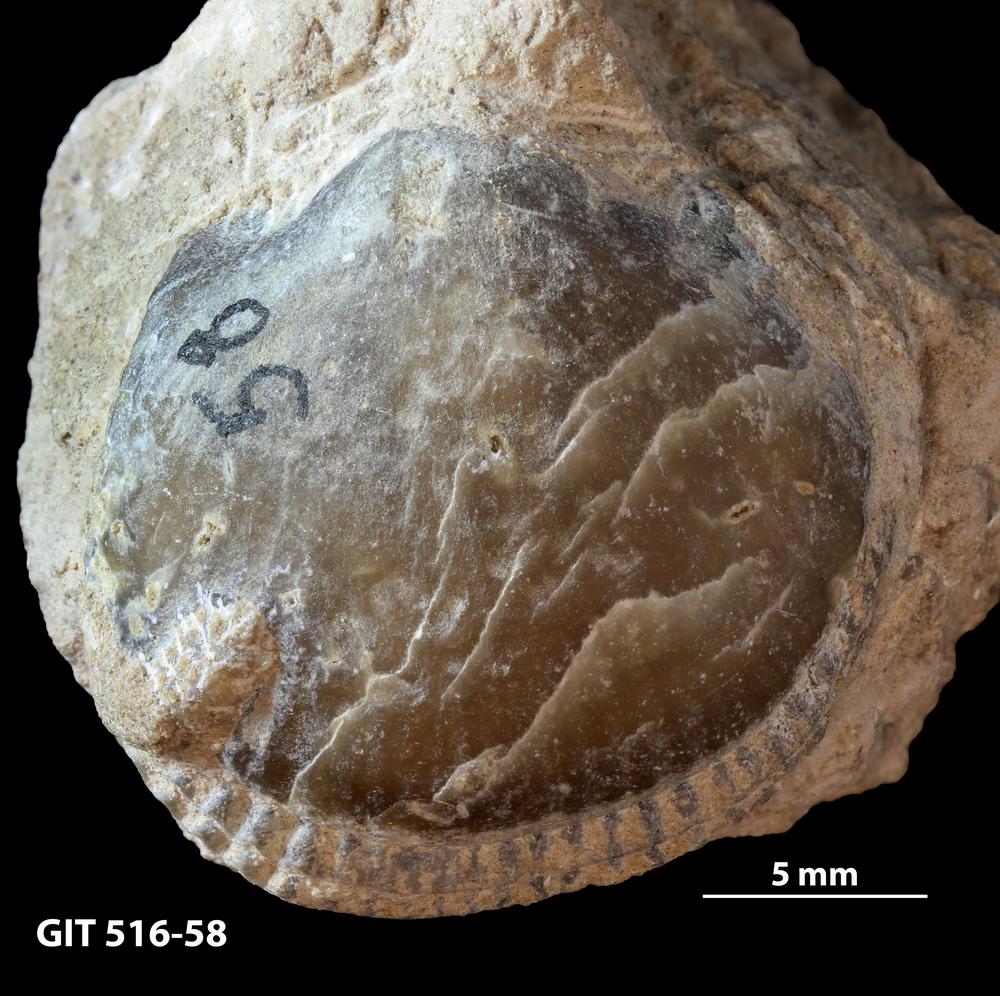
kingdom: Animalia
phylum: Brachiopoda
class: Rhynchonellata
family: Lycophoriidae
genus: Lycophoria
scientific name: Lycophoria Atrypa nucella
